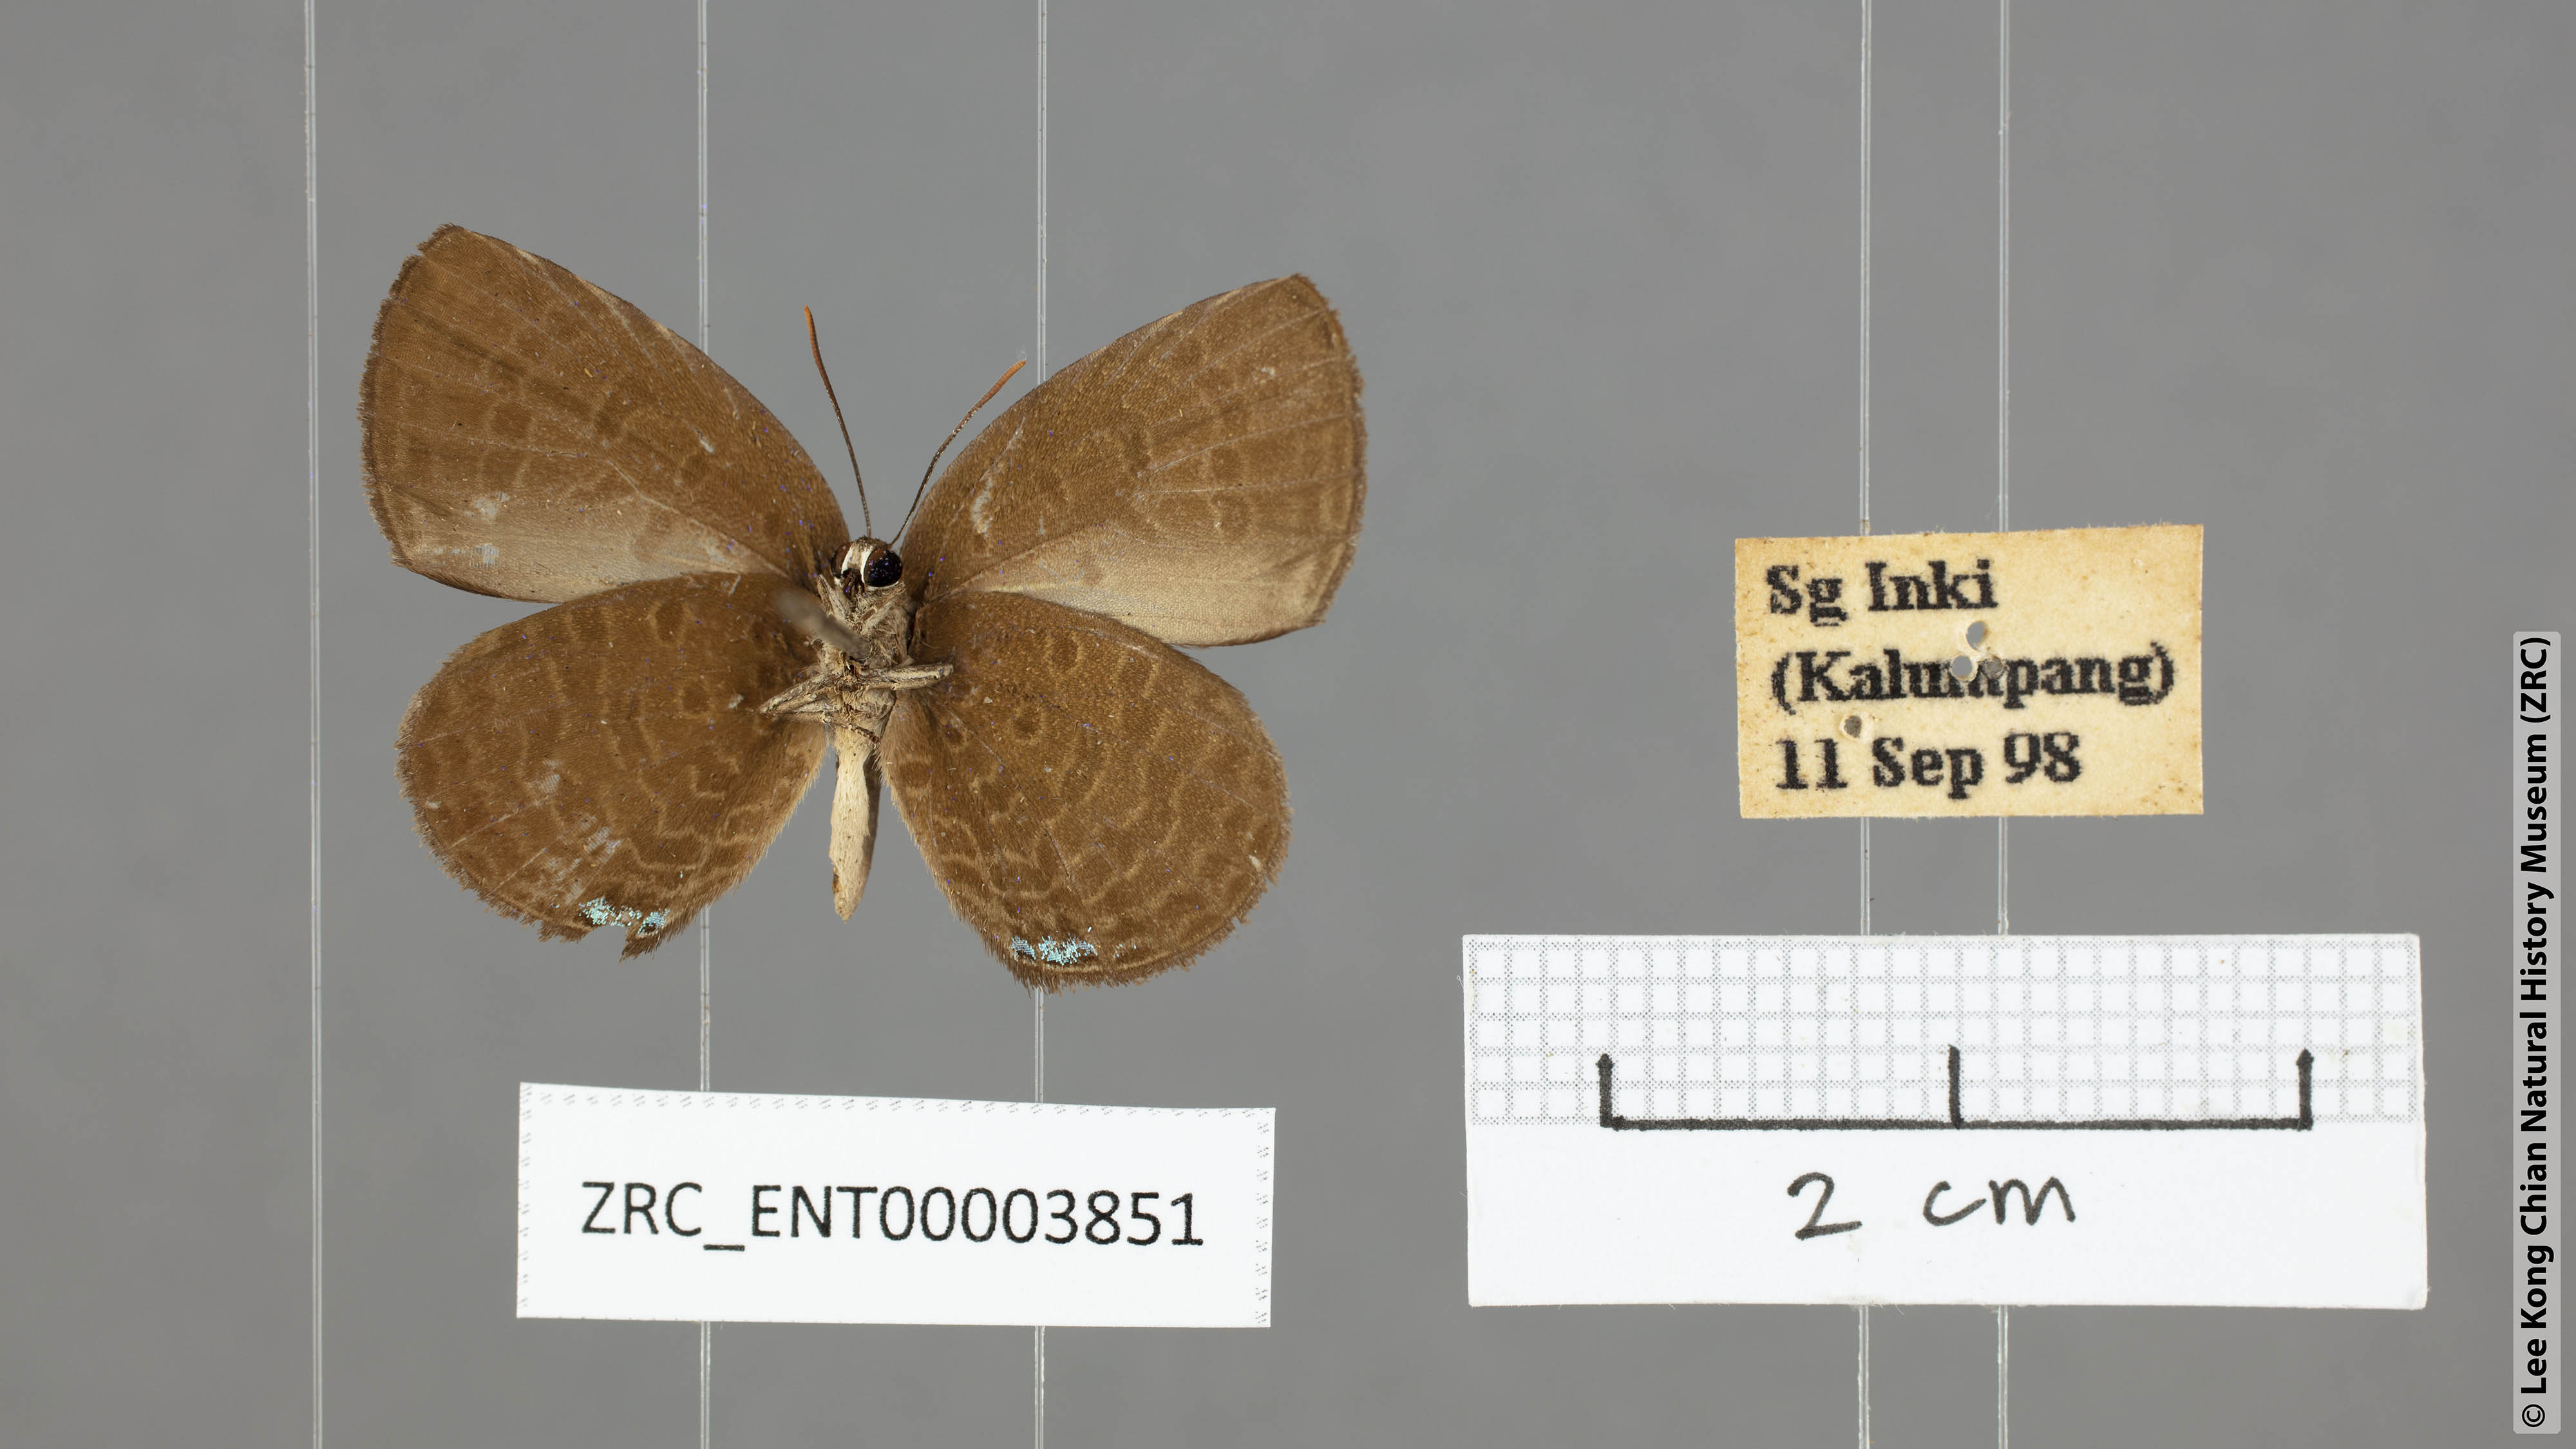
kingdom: Animalia
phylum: Arthropoda
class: Insecta
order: Lepidoptera
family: Lycaenidae
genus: Arhopala
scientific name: Arhopala antimuta
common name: Small tailless oakblue
